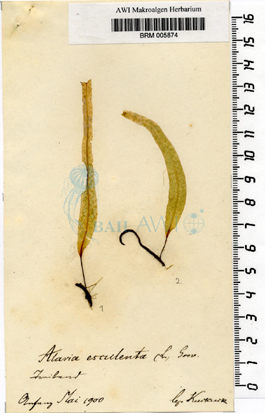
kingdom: Chromista
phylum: Ochrophyta
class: Phaeophyceae
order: Laminariales
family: Alariaceae
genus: Alaria
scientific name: Alaria esculenta
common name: Dabberlocks
